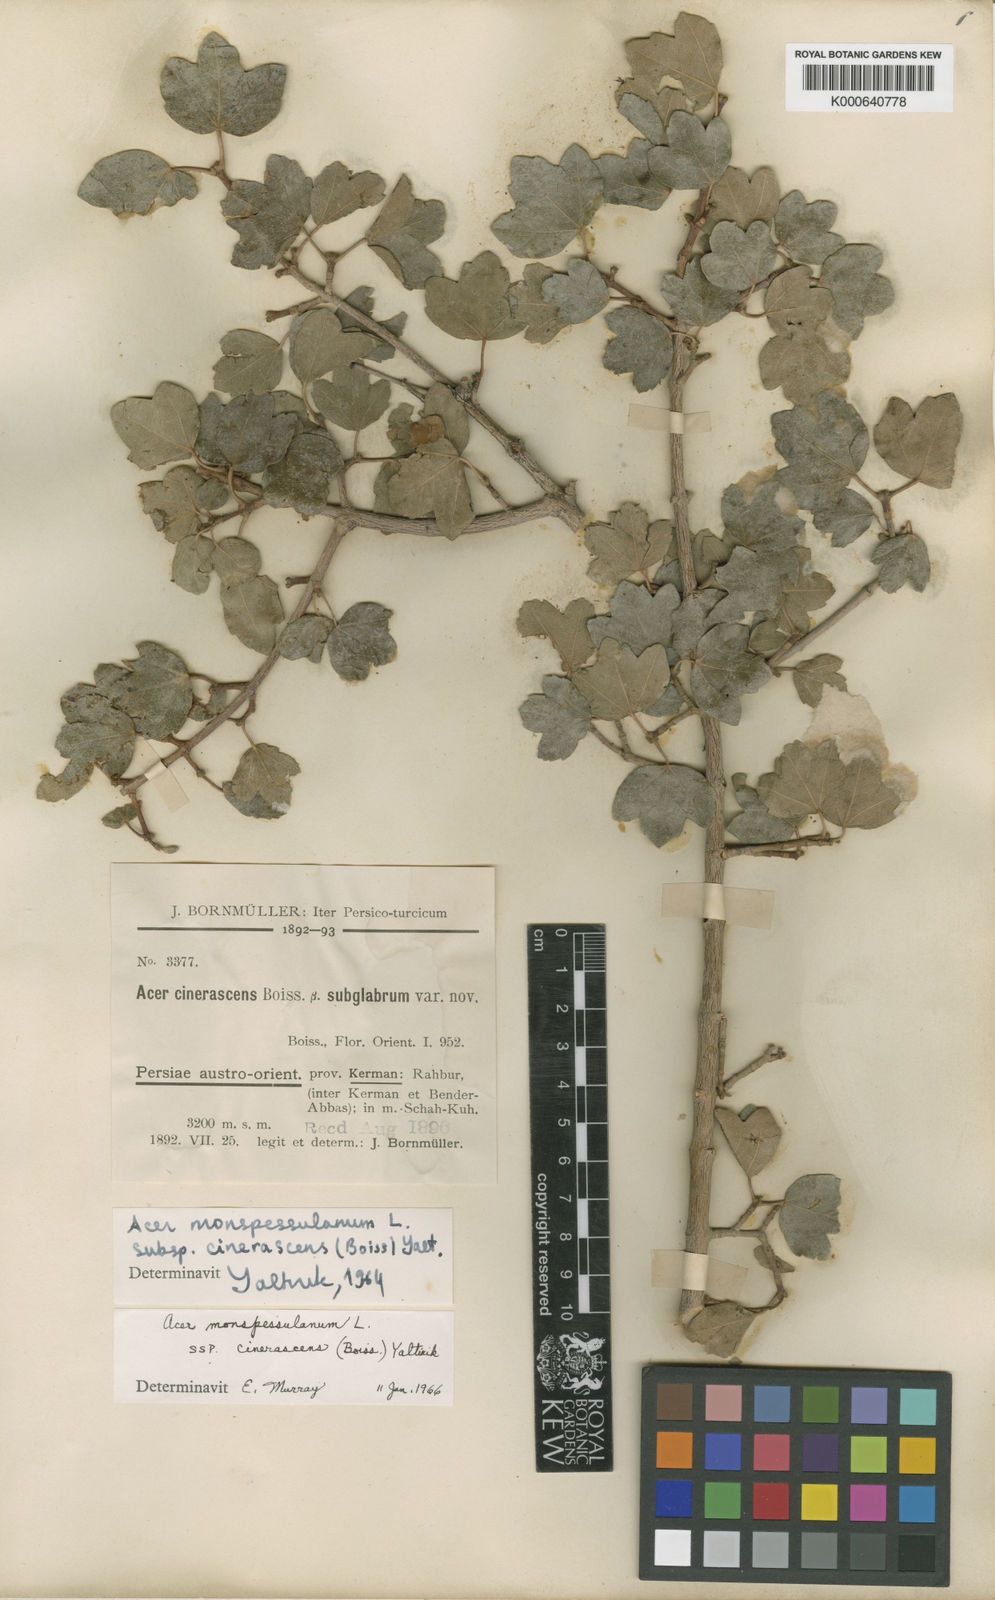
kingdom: Plantae
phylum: Tracheophyta
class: Magnoliopsida
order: Sapindales
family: Sapindaceae
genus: Acer
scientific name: Acer monspessulanum
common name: Montpellier maple
